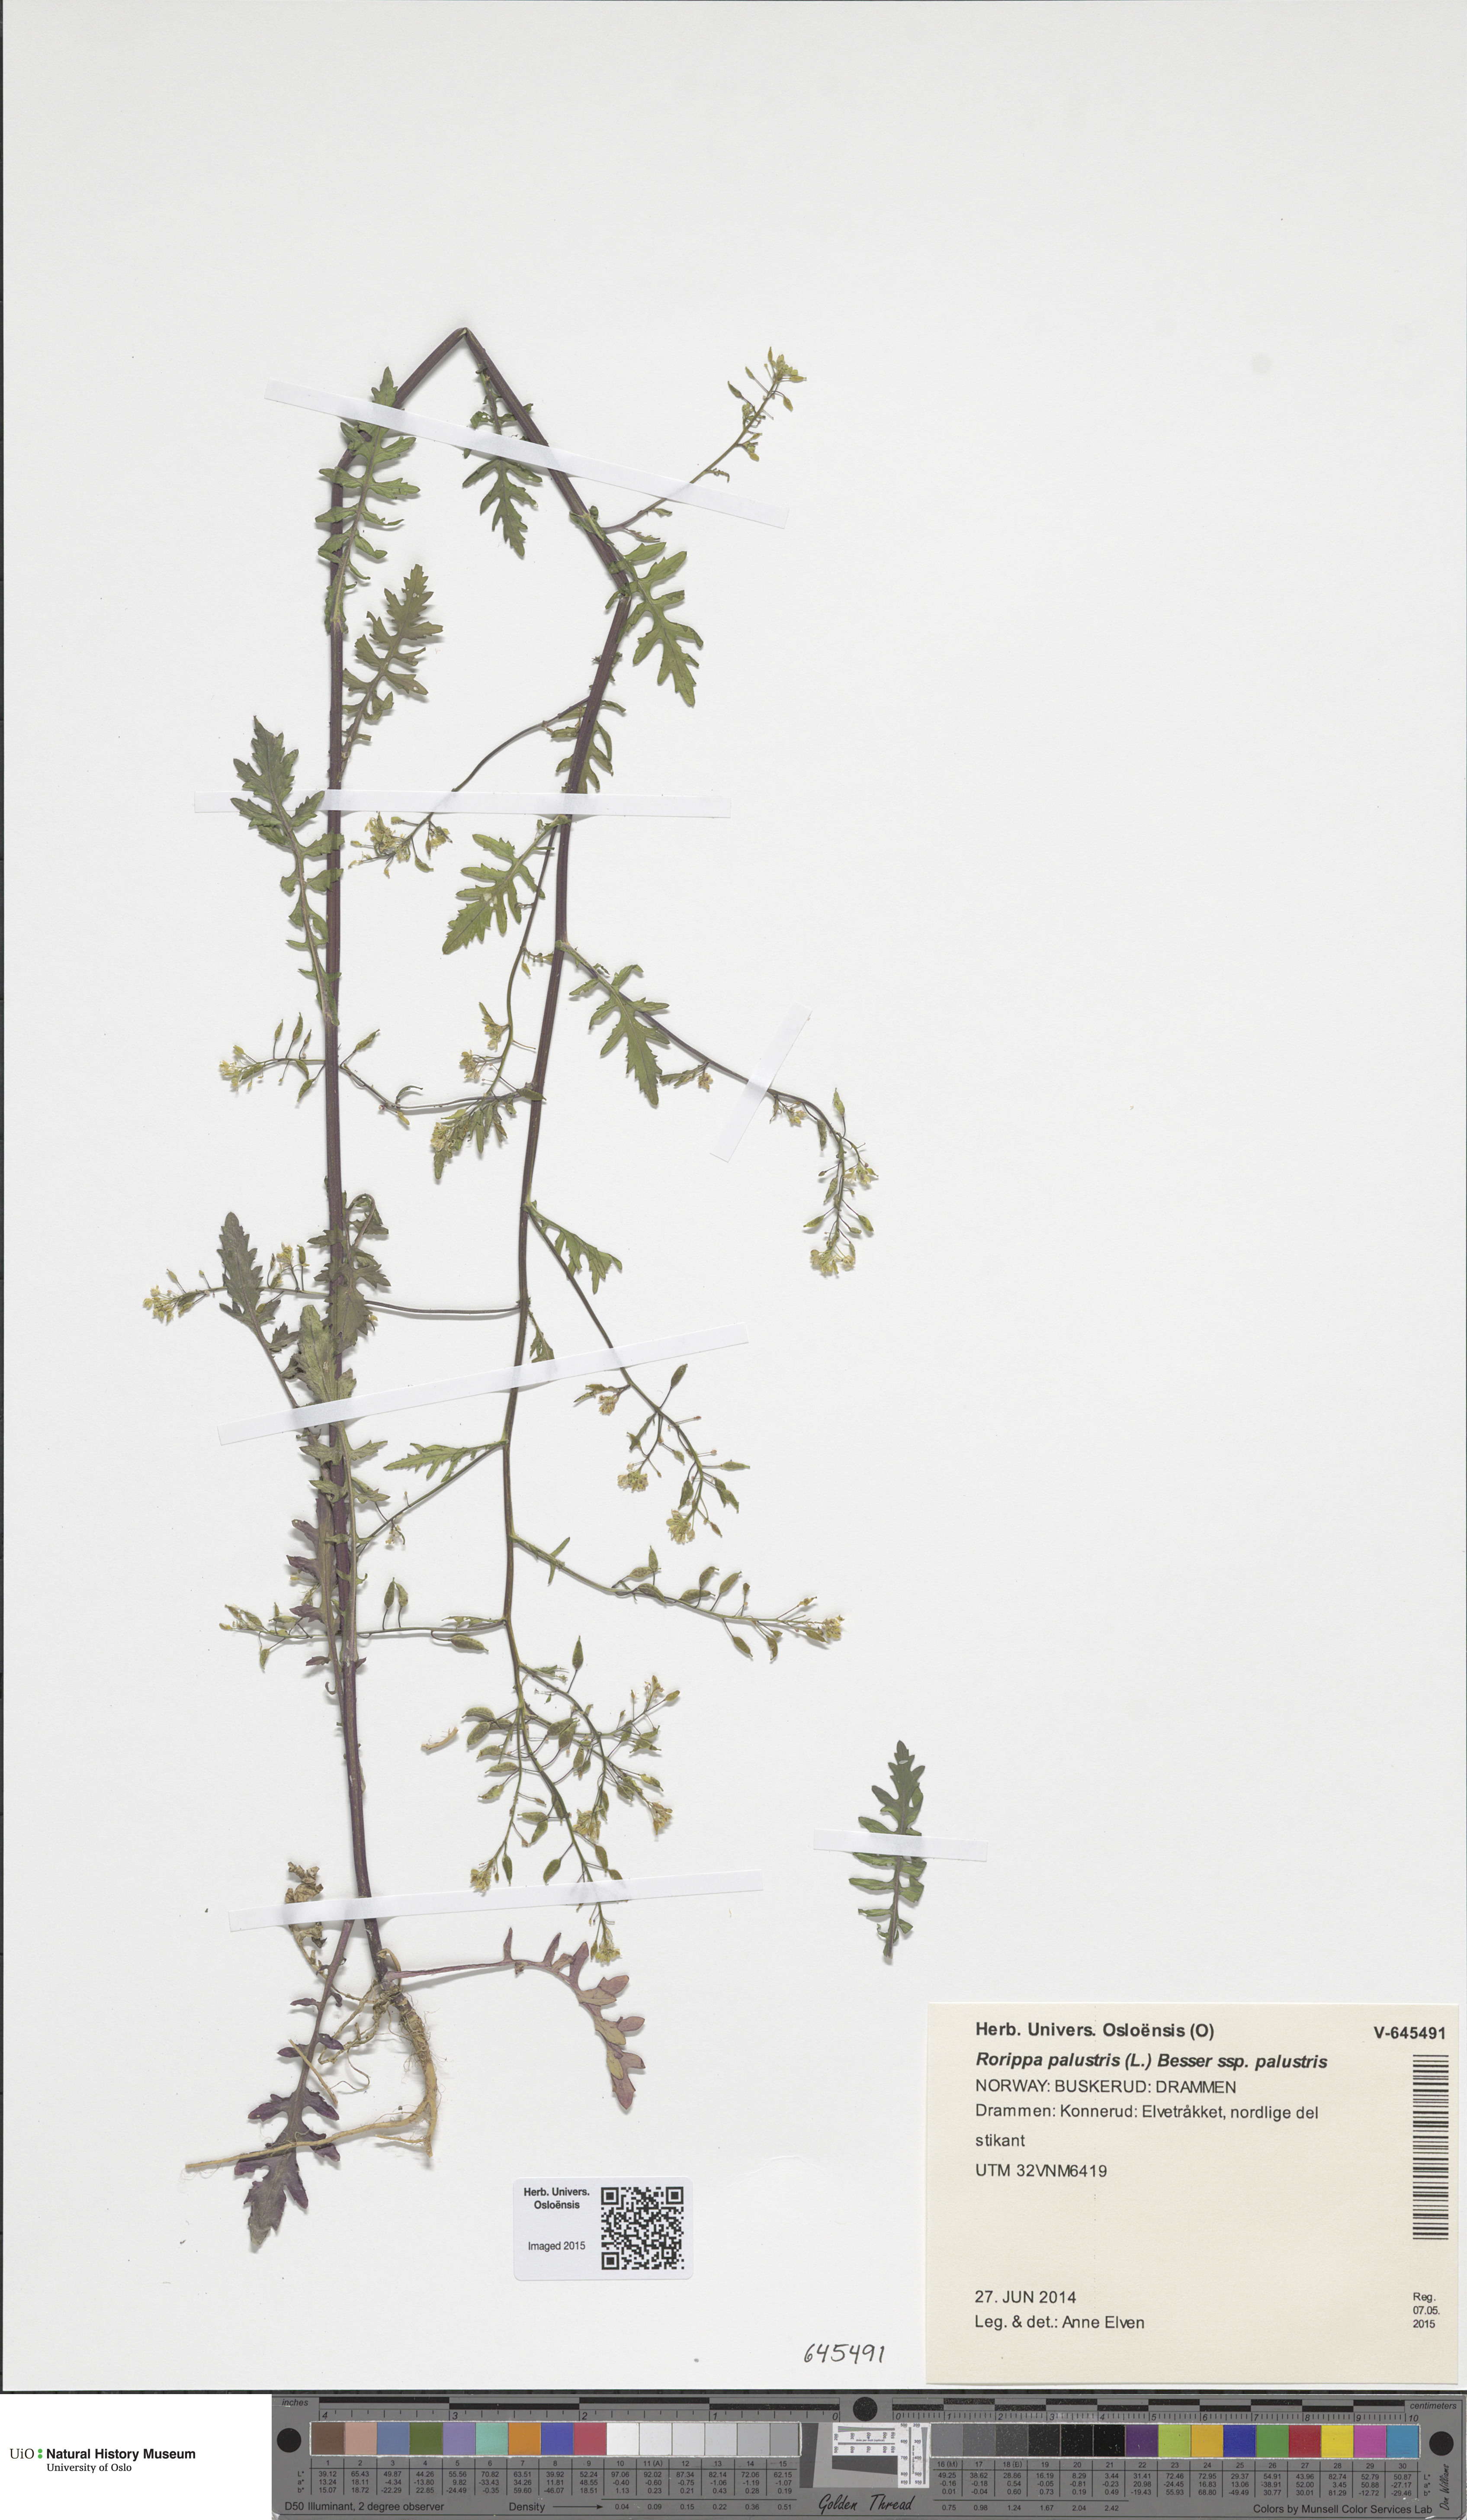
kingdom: Plantae
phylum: Tracheophyta
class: Magnoliopsida
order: Brassicales
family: Brassicaceae
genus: Rorippa
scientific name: Rorippa palustris
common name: Marsh yellow-cress
